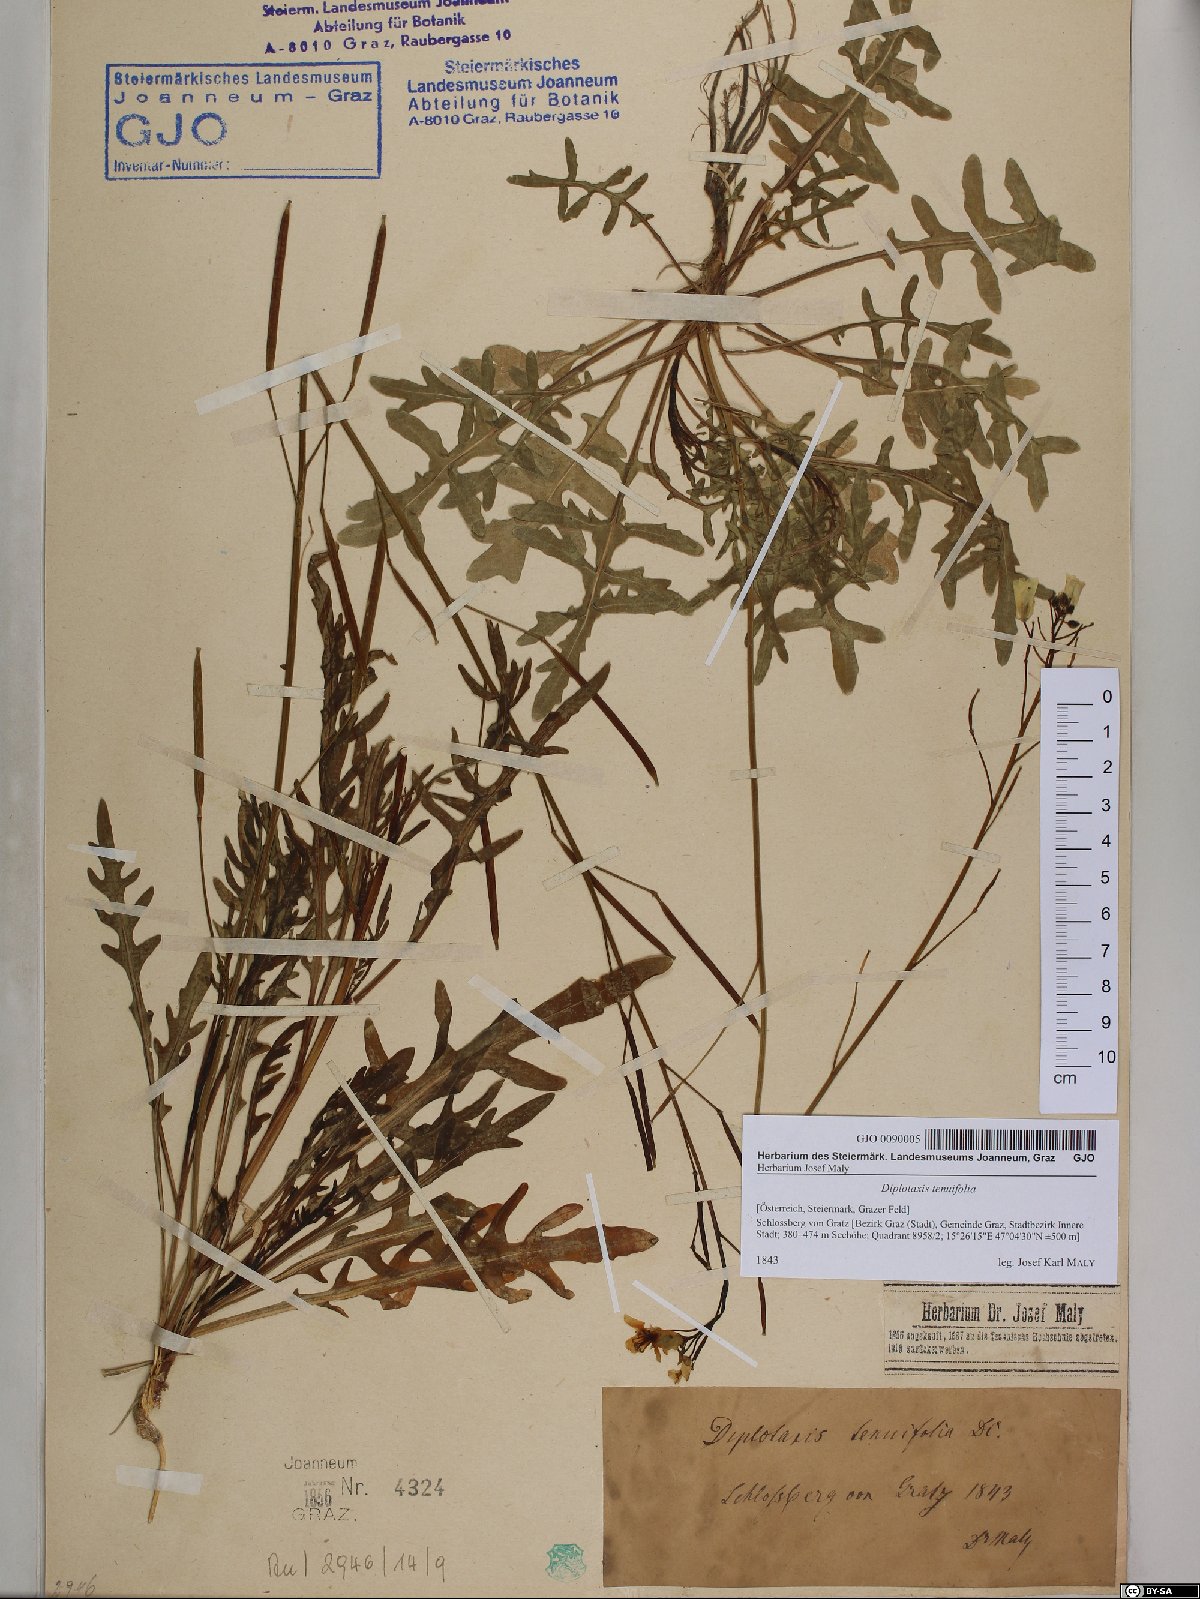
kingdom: Plantae
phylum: Tracheophyta
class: Magnoliopsida
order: Brassicales
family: Brassicaceae
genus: Diplotaxis
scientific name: Diplotaxis tenuifolia
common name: Perennial wall-rocket
